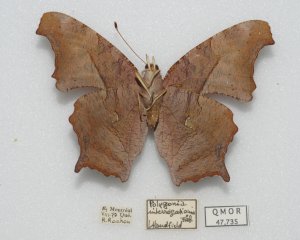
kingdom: Animalia
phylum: Arthropoda
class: Insecta
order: Lepidoptera
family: Nymphalidae
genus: Polygonia
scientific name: Polygonia interrogationis
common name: Question Mark
